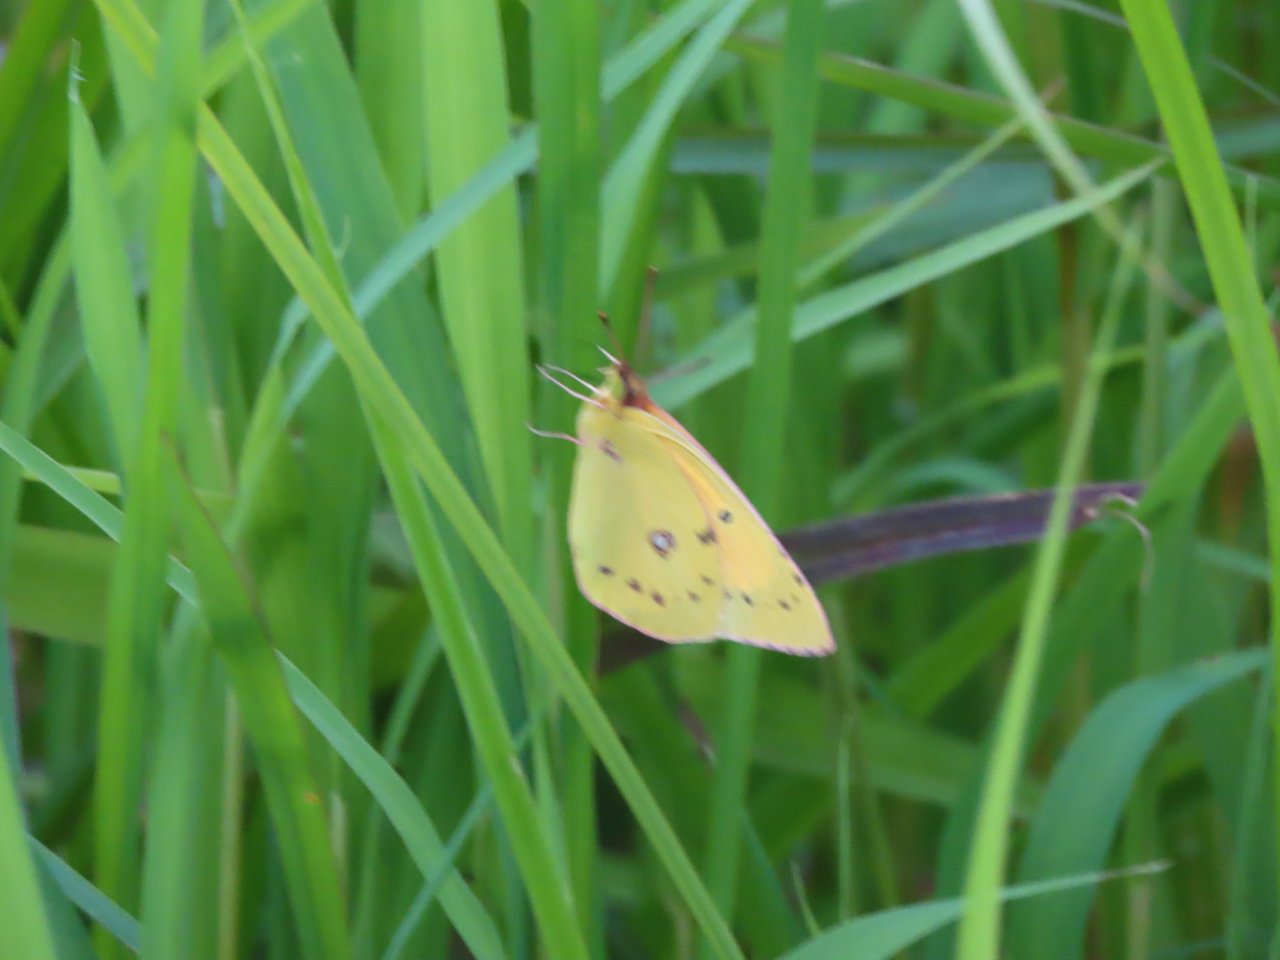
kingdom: Animalia
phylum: Arthropoda
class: Insecta
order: Lepidoptera
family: Pieridae
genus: Colias
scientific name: Colias eurytheme
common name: Orange Sulphur
